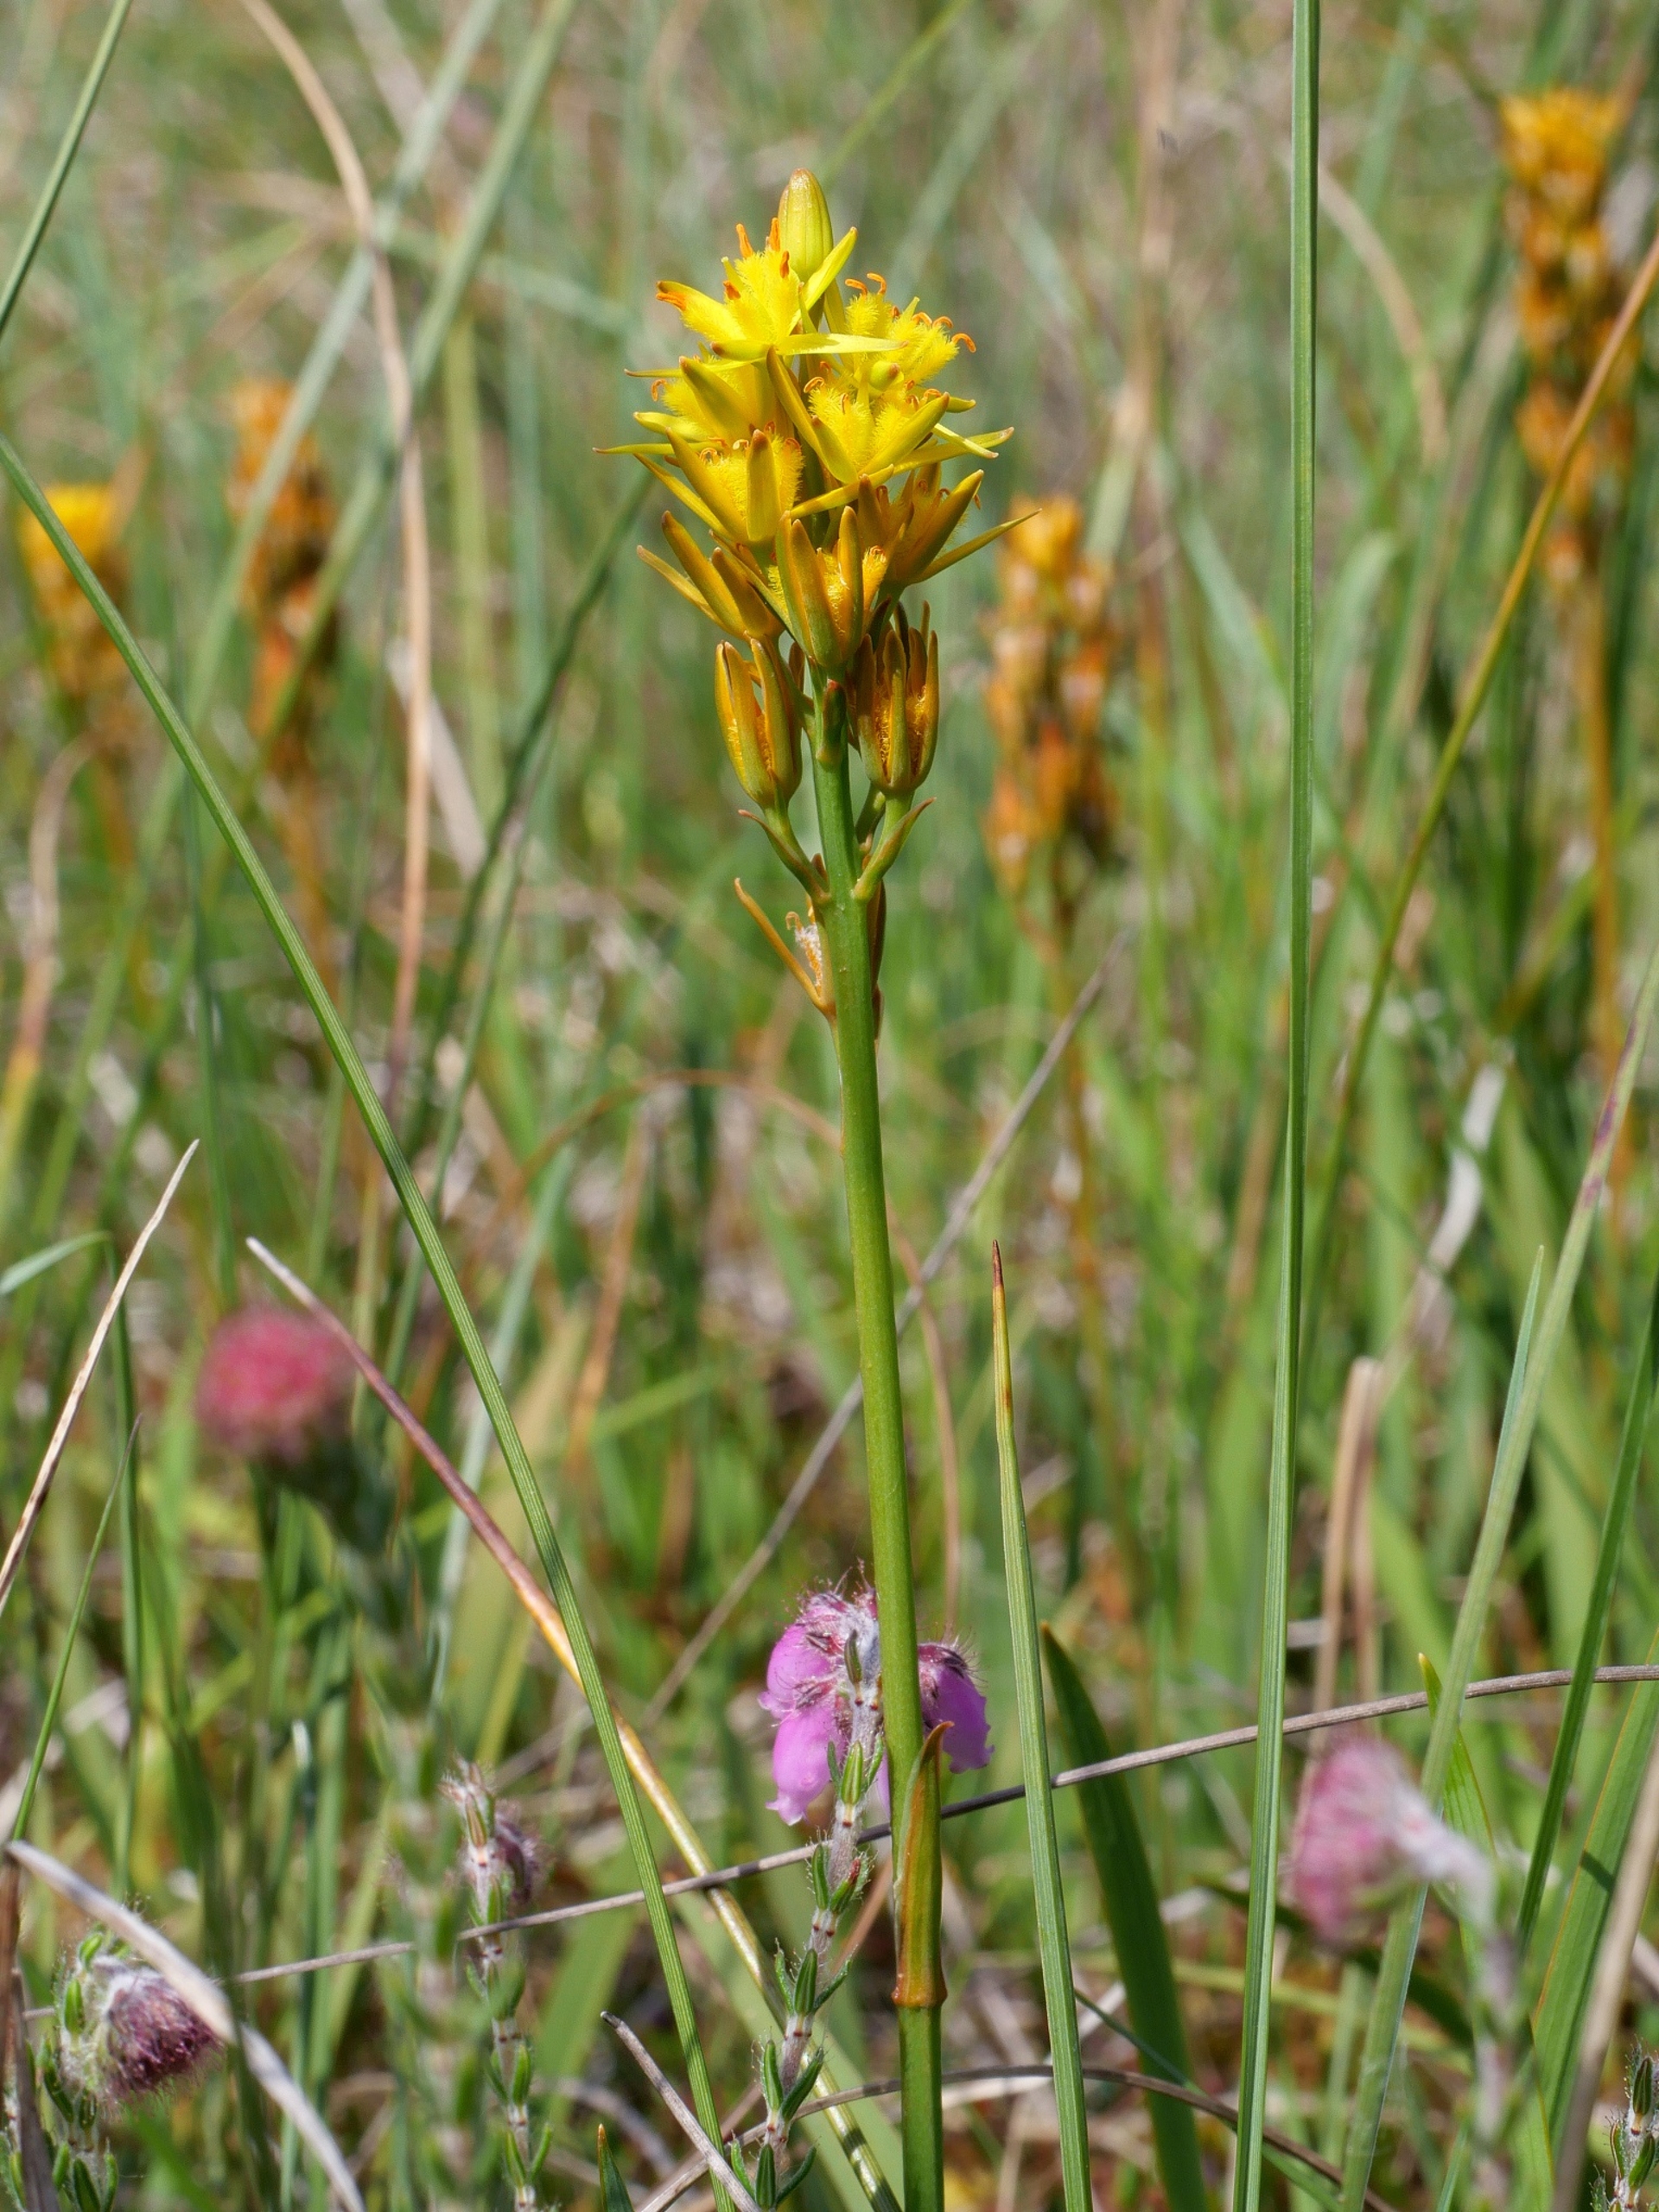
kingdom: Plantae
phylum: Tracheophyta
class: Liliopsida
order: Dioscoreales
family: Nartheciaceae
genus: Narthecium
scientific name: Narthecium ossifragum
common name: Benbræk
